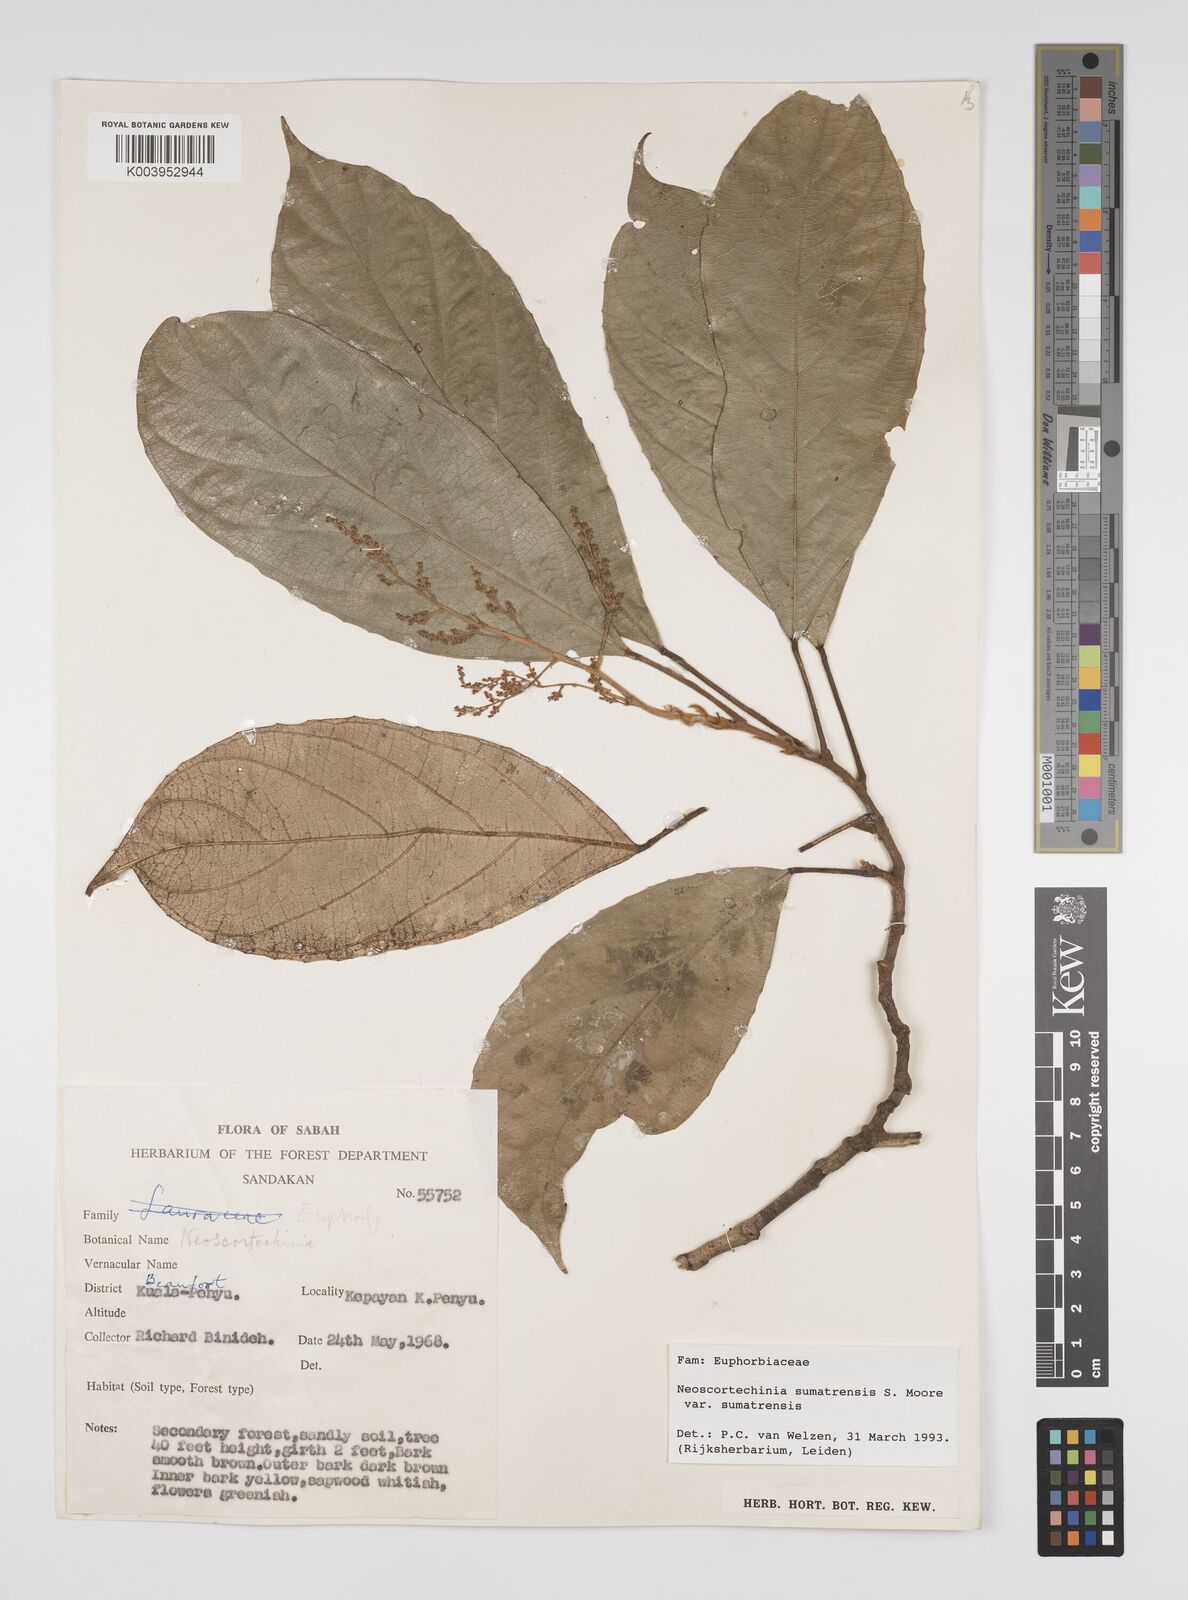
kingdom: Plantae
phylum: Tracheophyta
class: Magnoliopsida
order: Malpighiales
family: Euphorbiaceae
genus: Neoscortechinia
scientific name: Neoscortechinia sumatrensis
